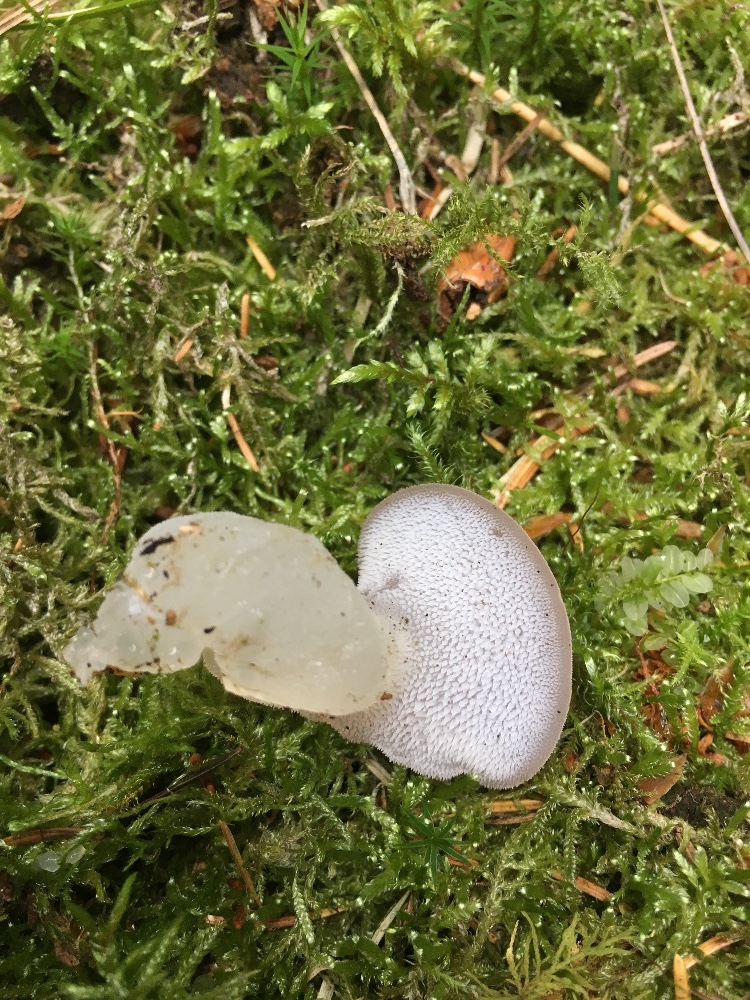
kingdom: Fungi
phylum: Basidiomycota
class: Agaricomycetes
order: Auriculariales
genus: Pseudohydnum
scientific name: Pseudohydnum gelatinosum
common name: bævretand
